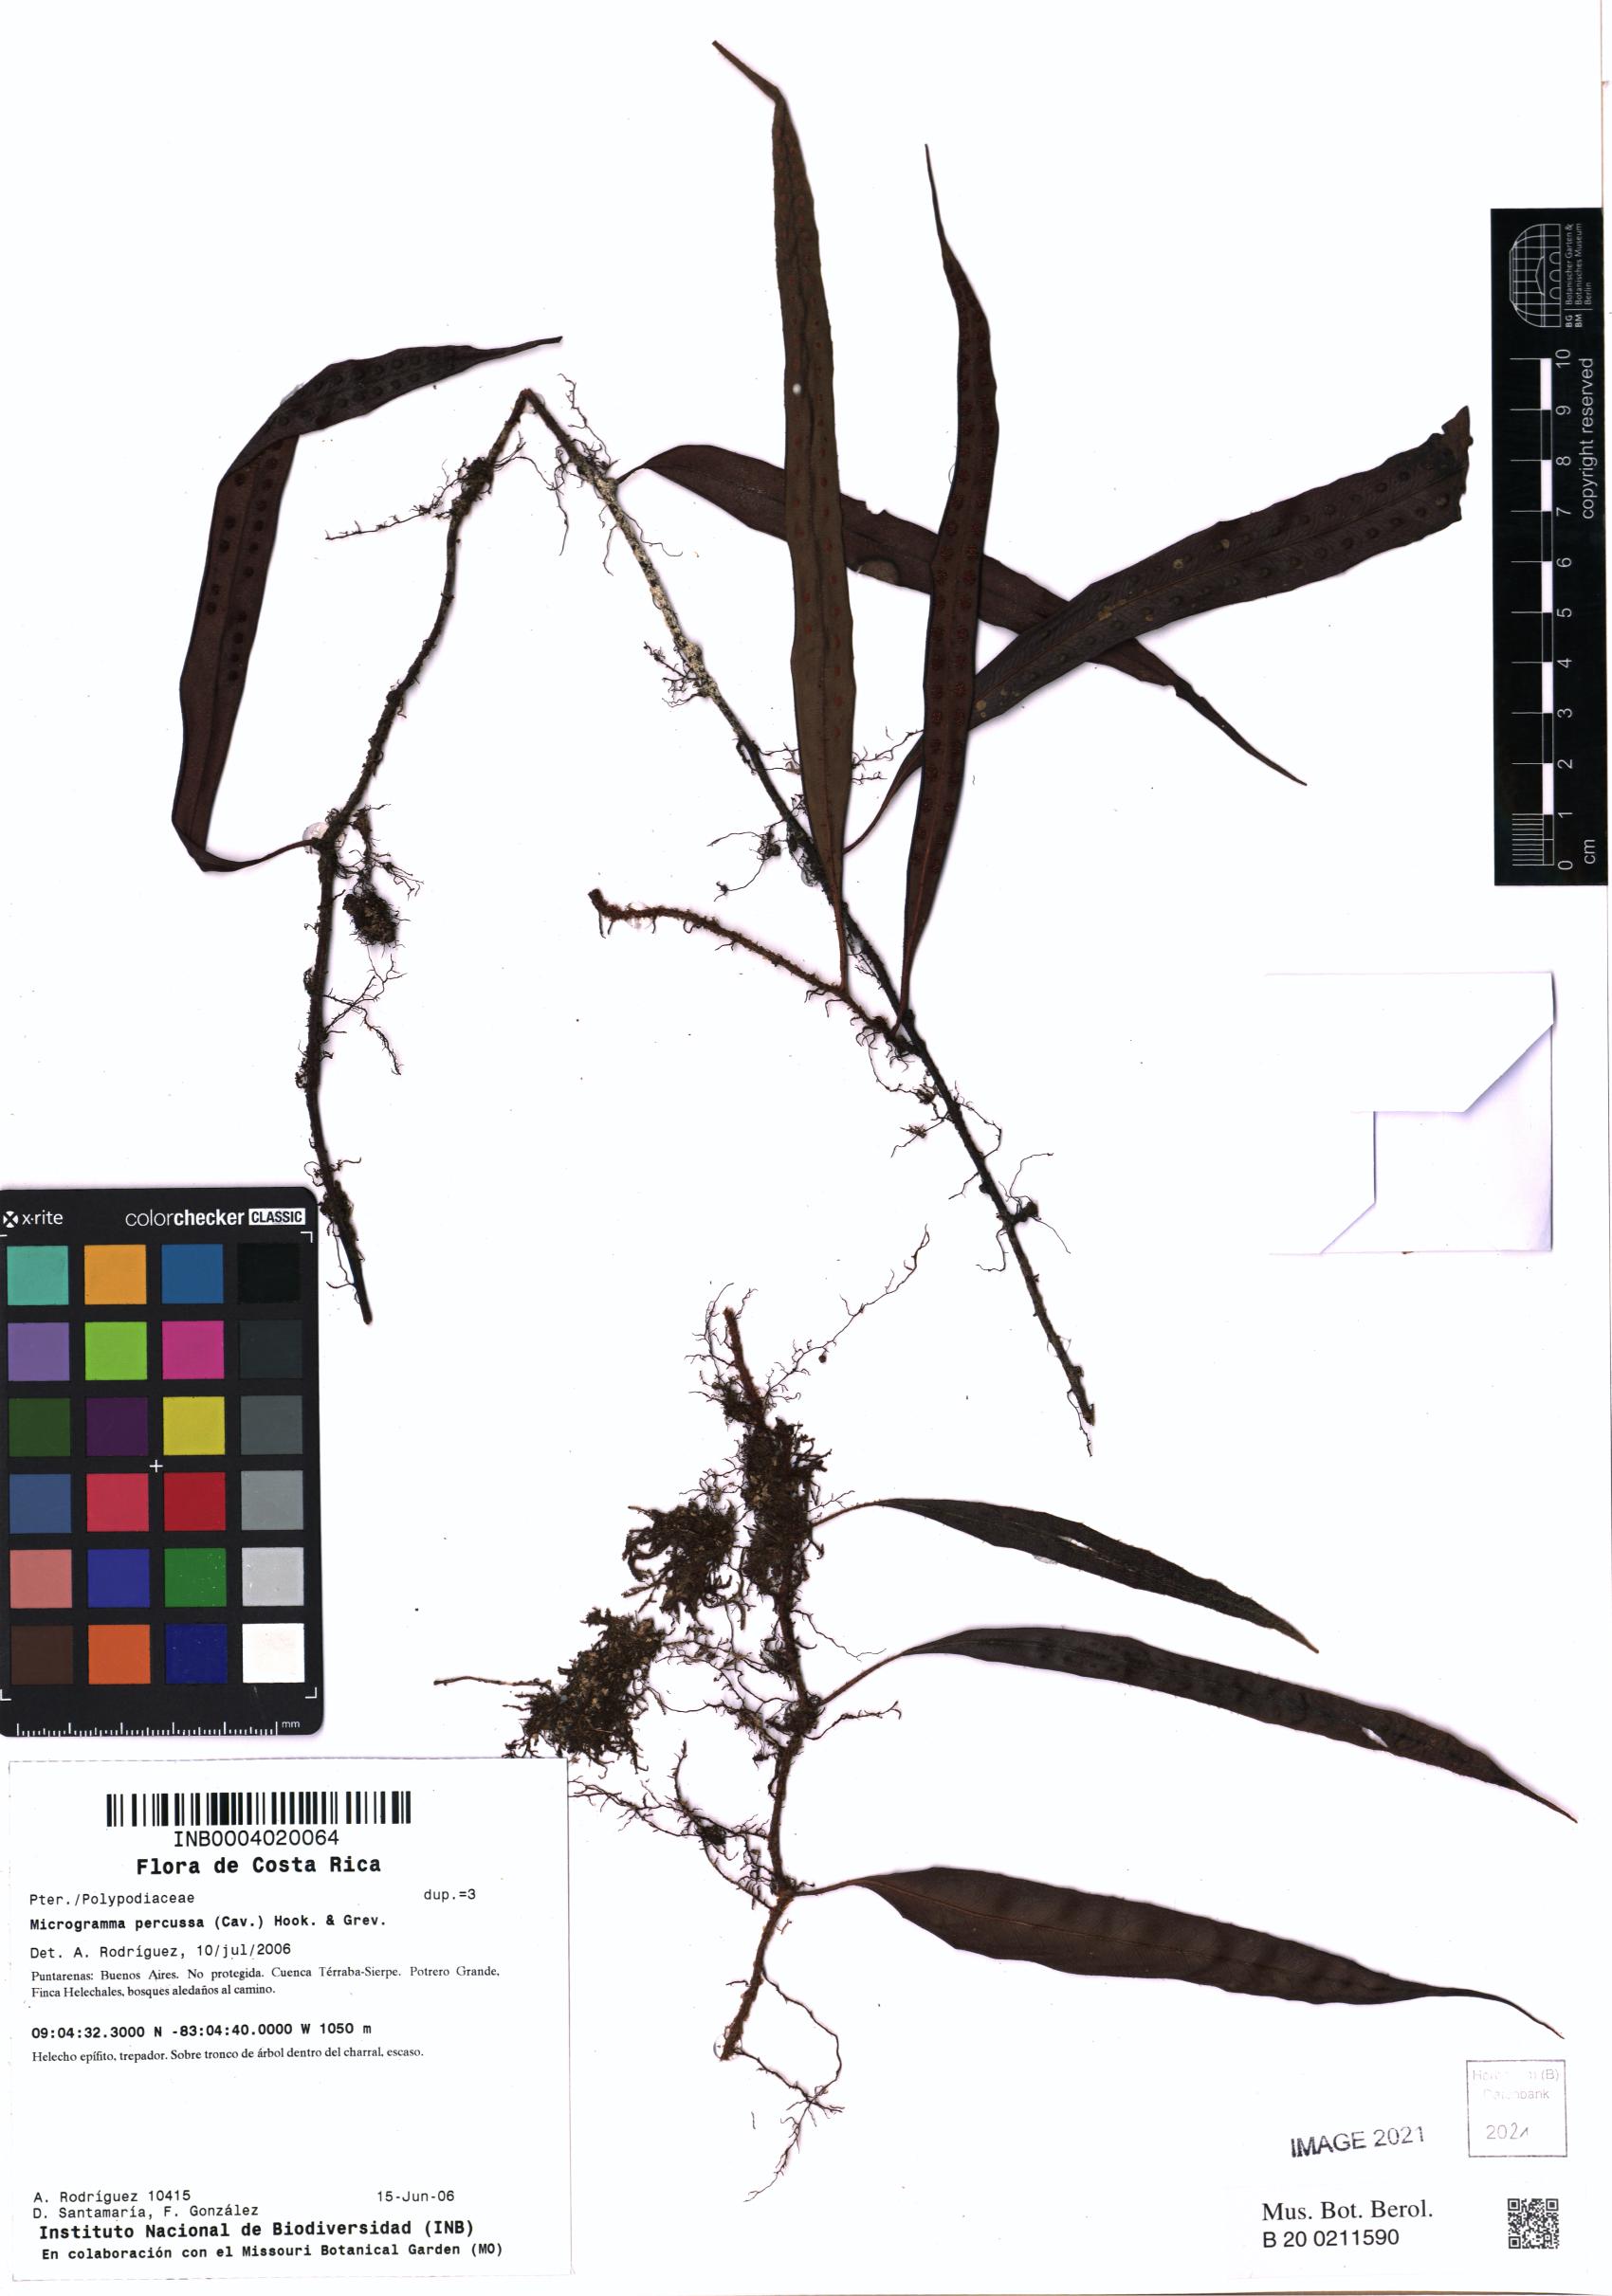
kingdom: Plantae
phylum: Tracheophyta
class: Polypodiopsida
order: Polypodiales
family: Polypodiaceae
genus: Microgramma
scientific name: Microgramma percussa
